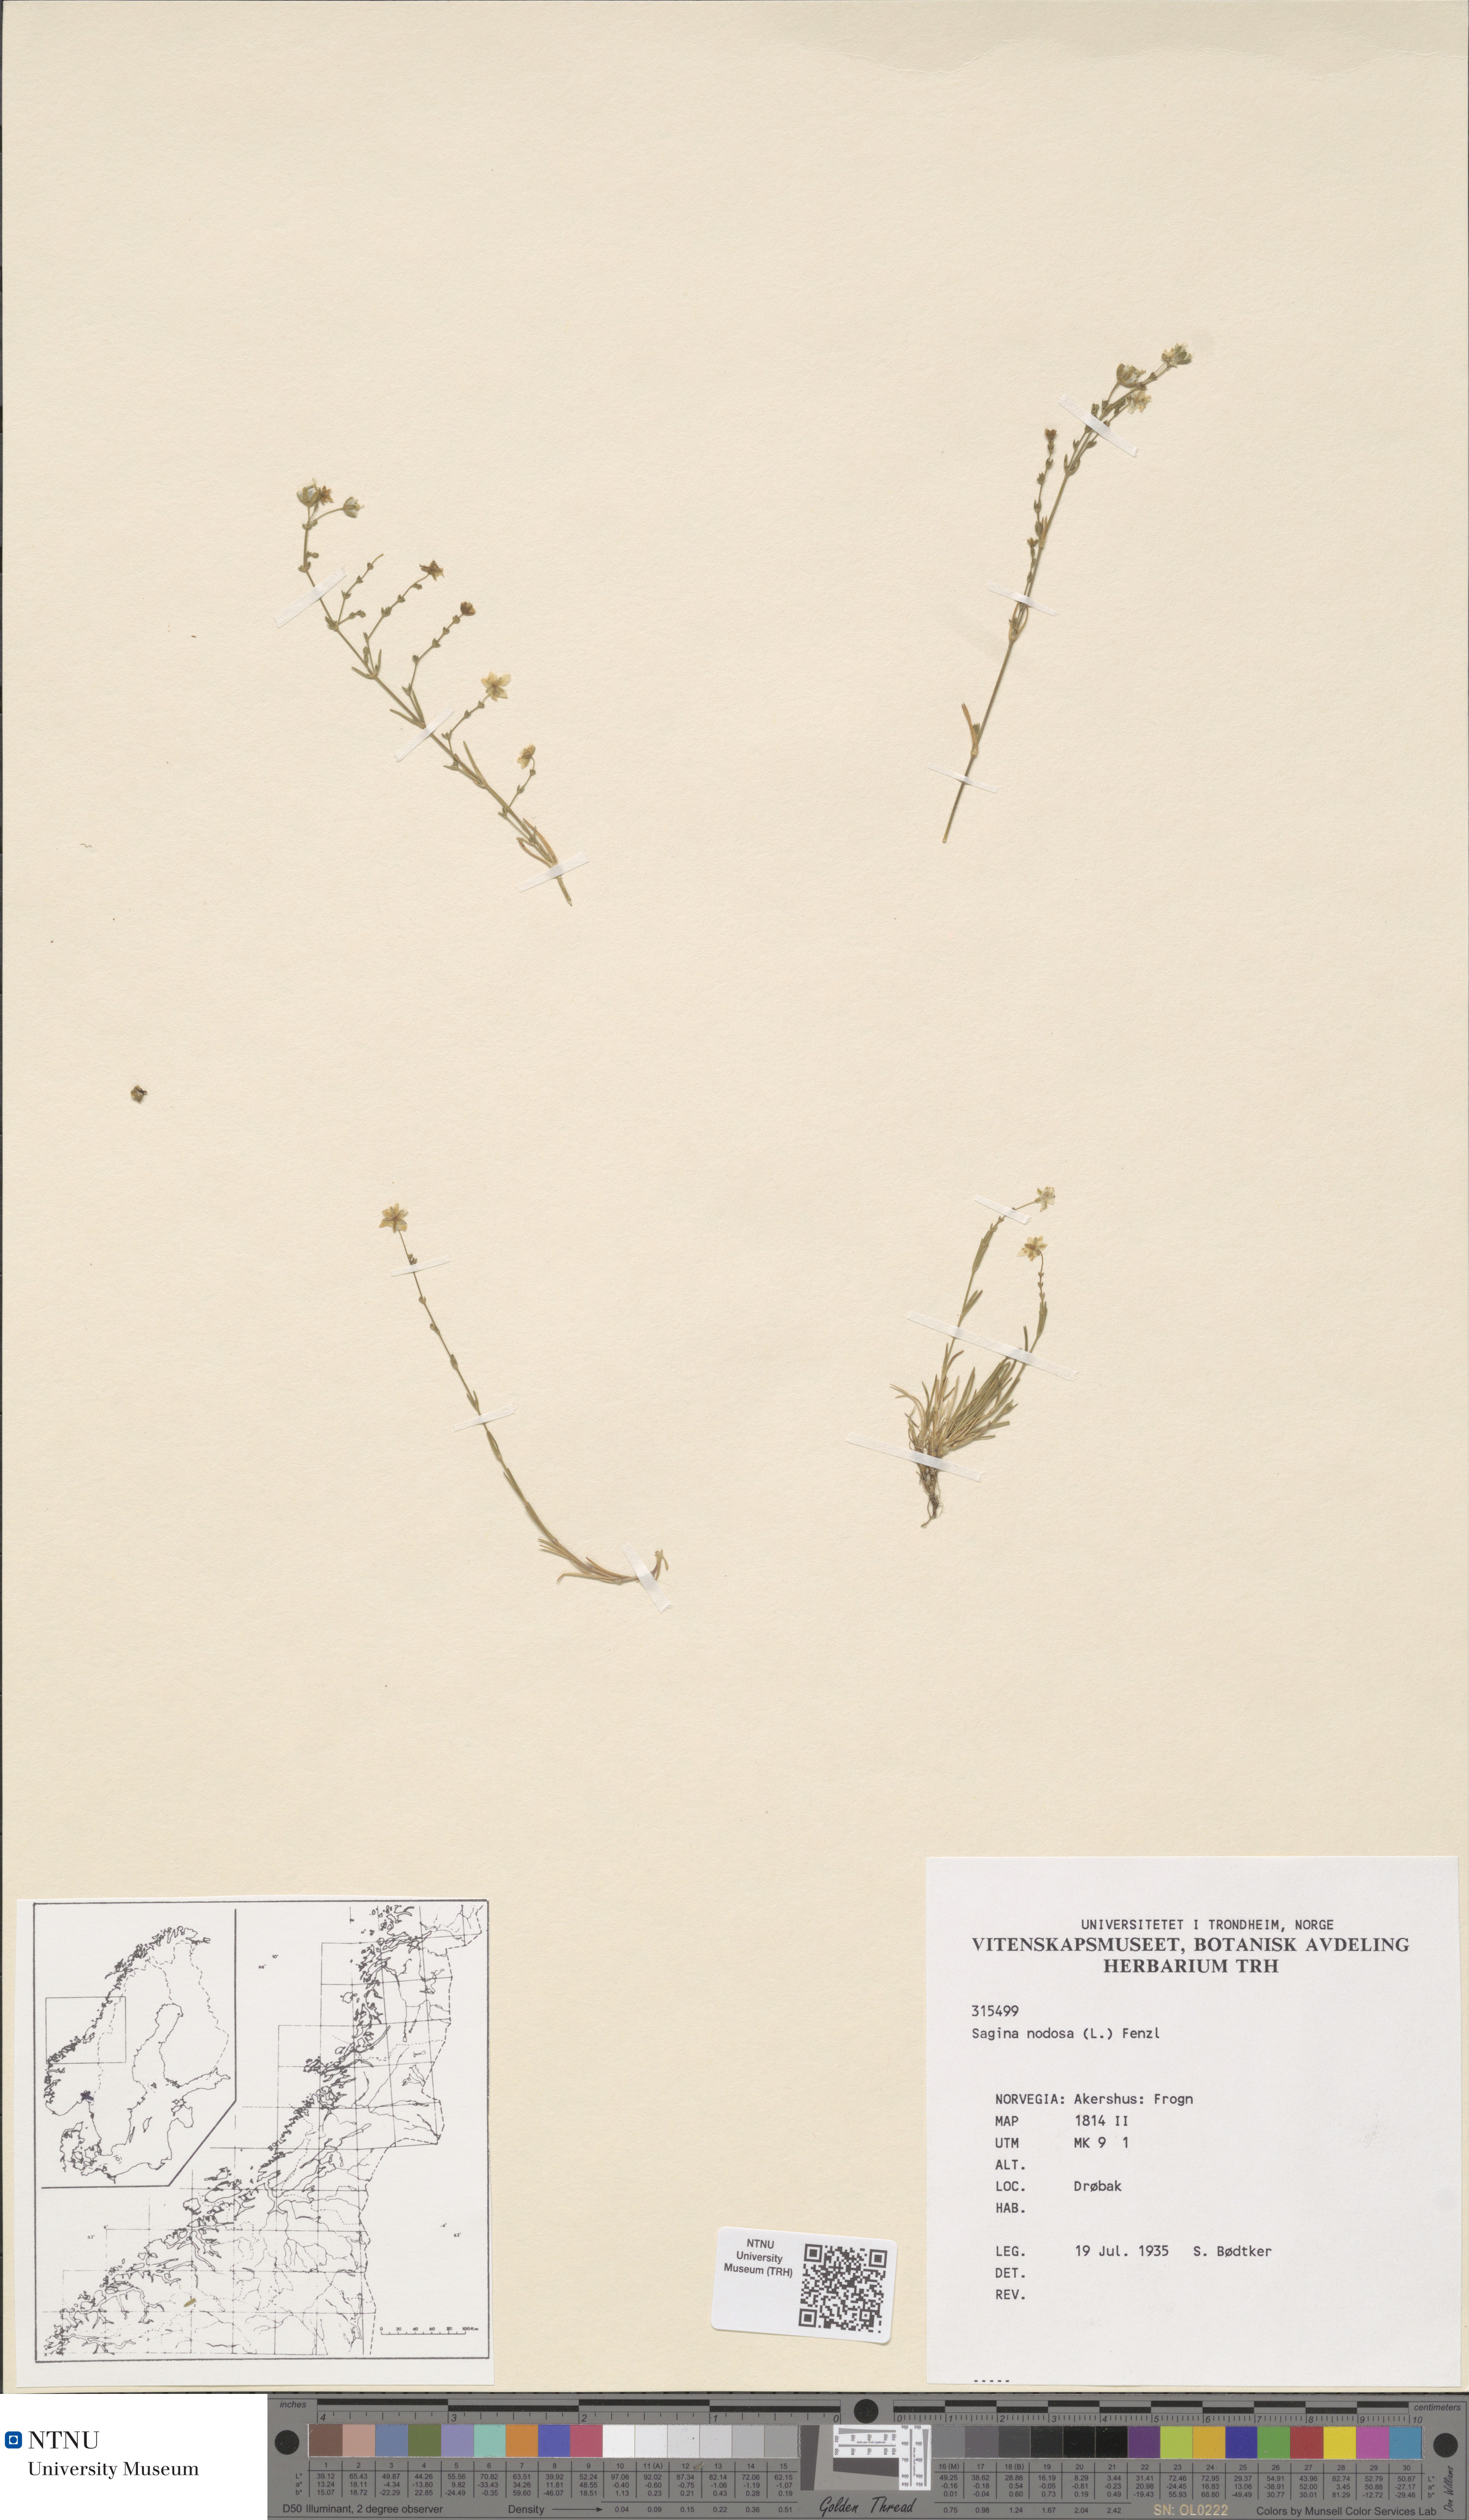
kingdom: Plantae
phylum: Tracheophyta
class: Magnoliopsida
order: Caryophyllales
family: Caryophyllaceae
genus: Sagina
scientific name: Sagina nodosa
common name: Knotted pearlwort
